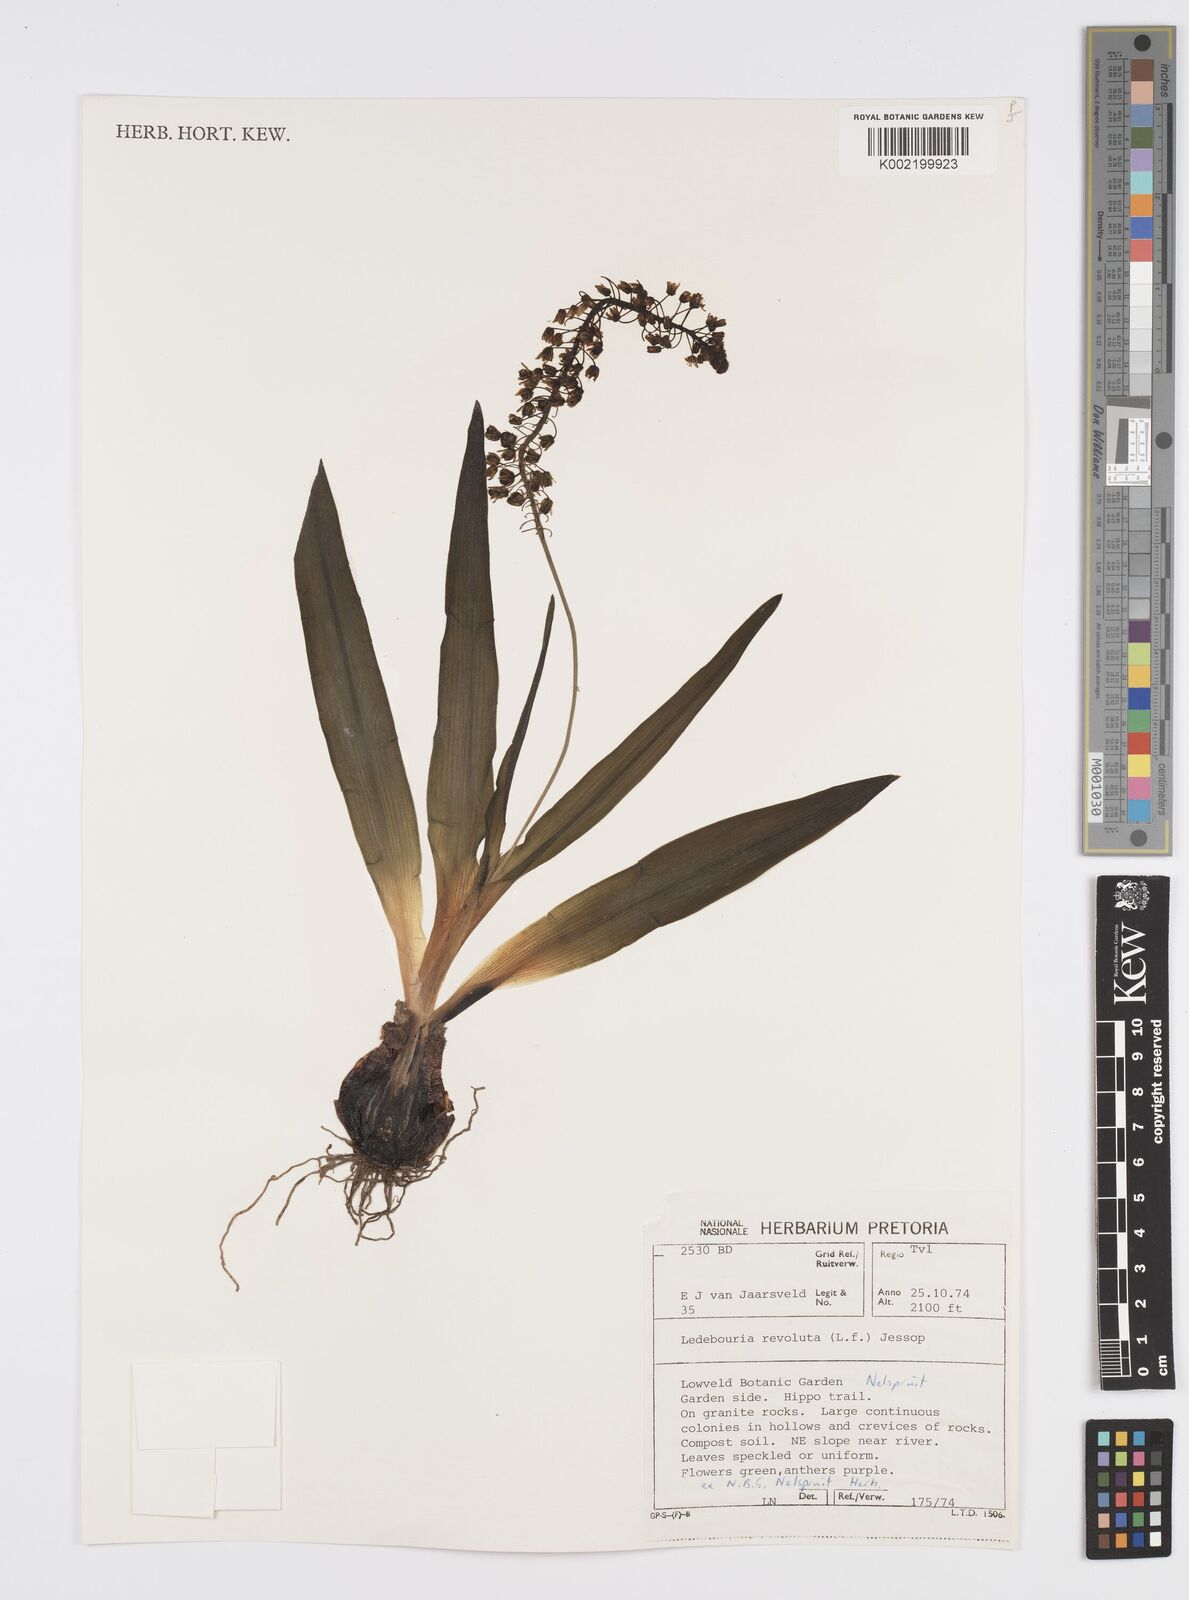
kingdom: Plantae
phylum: Tracheophyta
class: Liliopsida
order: Asparagales
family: Asparagaceae
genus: Ledebouria
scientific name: Ledebouria revoluta
